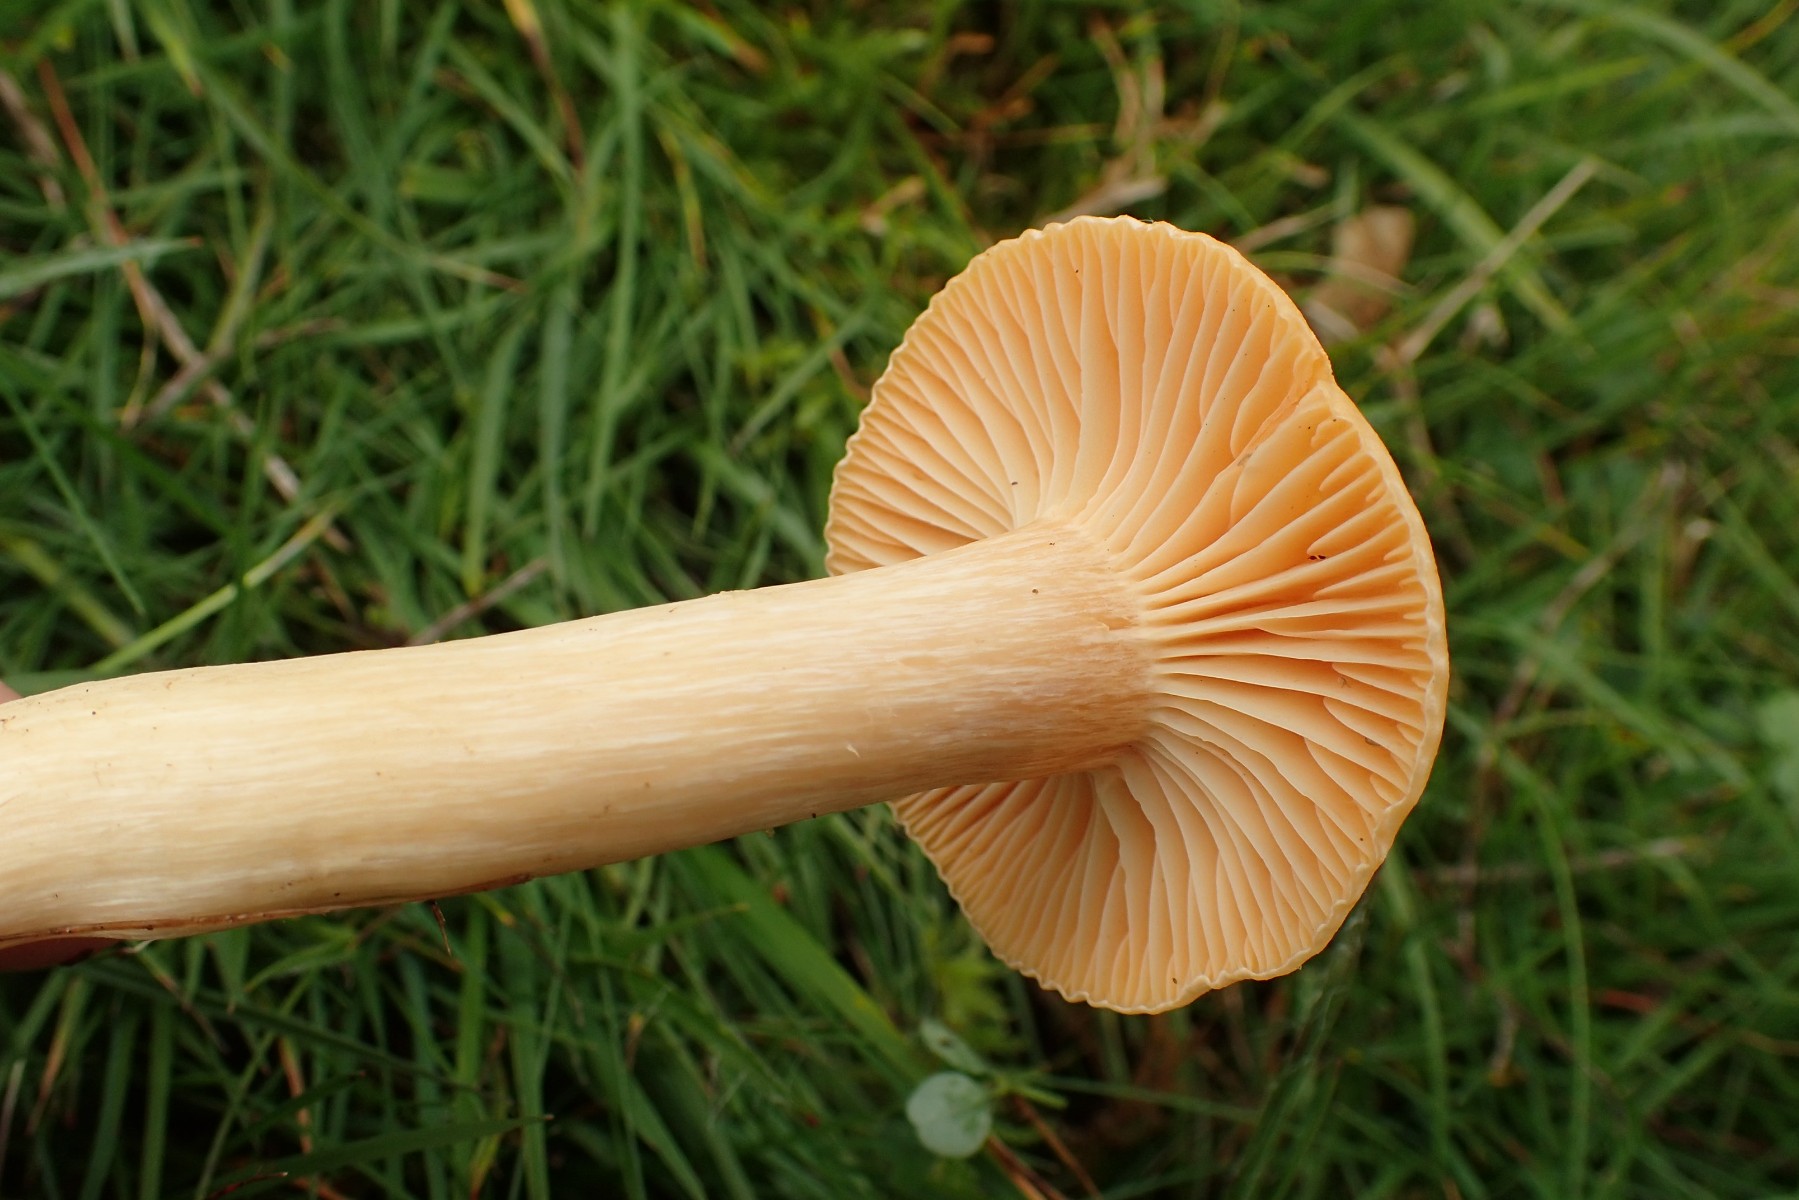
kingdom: Fungi
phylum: Basidiomycota
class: Agaricomycetes
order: Agaricales
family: Hygrophoraceae
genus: Cuphophyllus
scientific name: Cuphophyllus pratensis
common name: eng-vokshat
